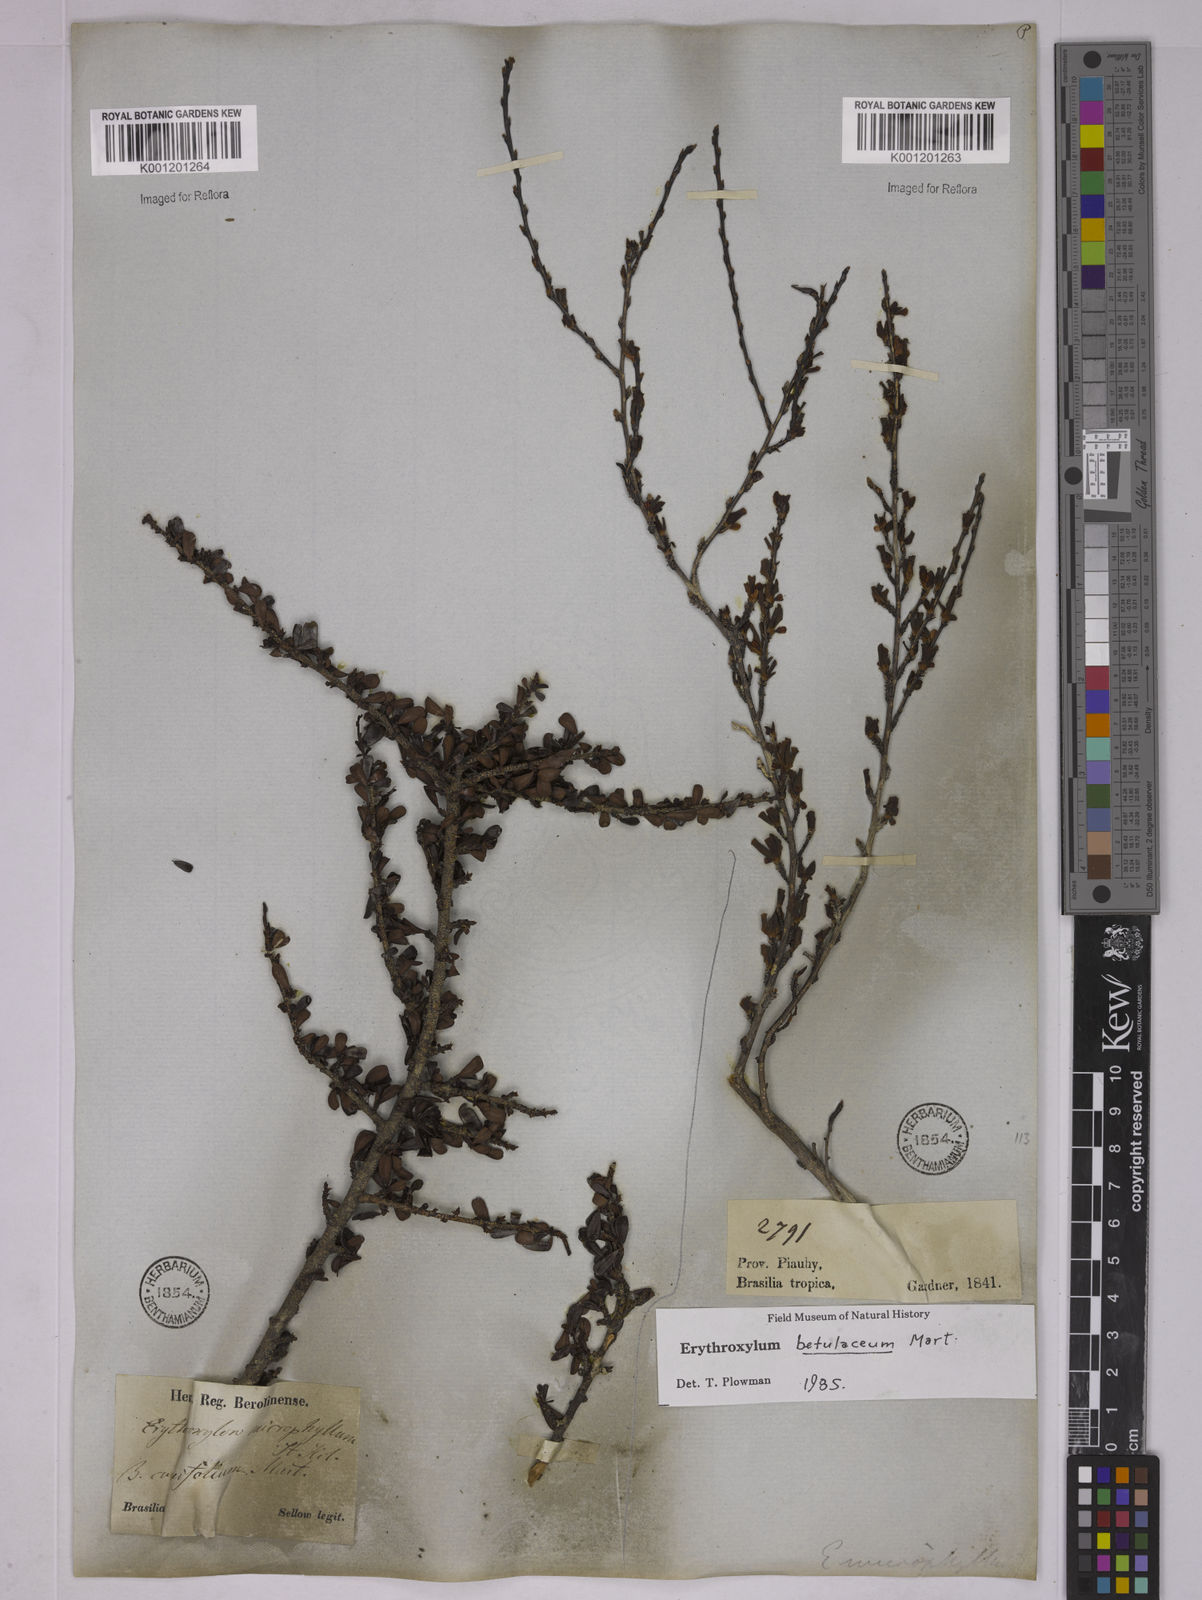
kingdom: Plantae
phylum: Tracheophyta
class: Magnoliopsida
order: Malpighiales
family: Erythroxylaceae
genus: Erythroxylum
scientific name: Erythroxylum betulaceum
